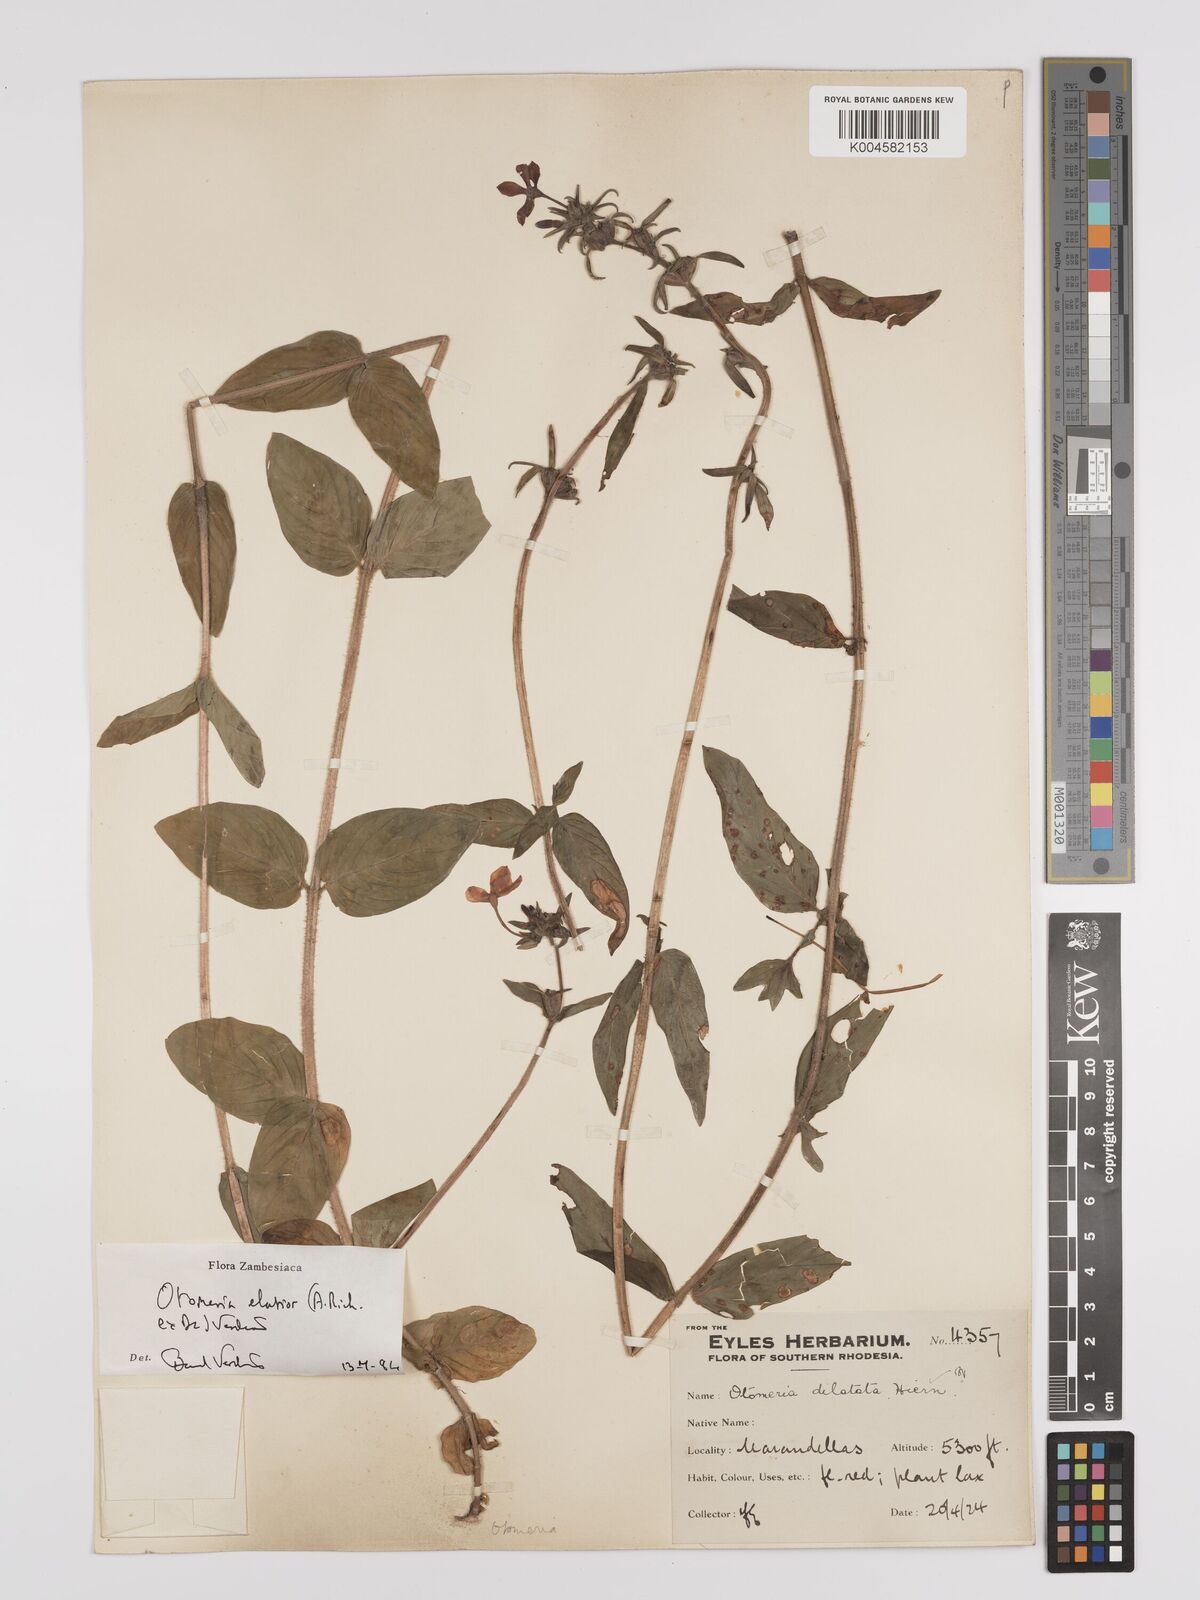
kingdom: Plantae
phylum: Tracheophyta
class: Magnoliopsida
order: Gentianales
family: Rubiaceae
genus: Otomeria
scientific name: Otomeria elatior
